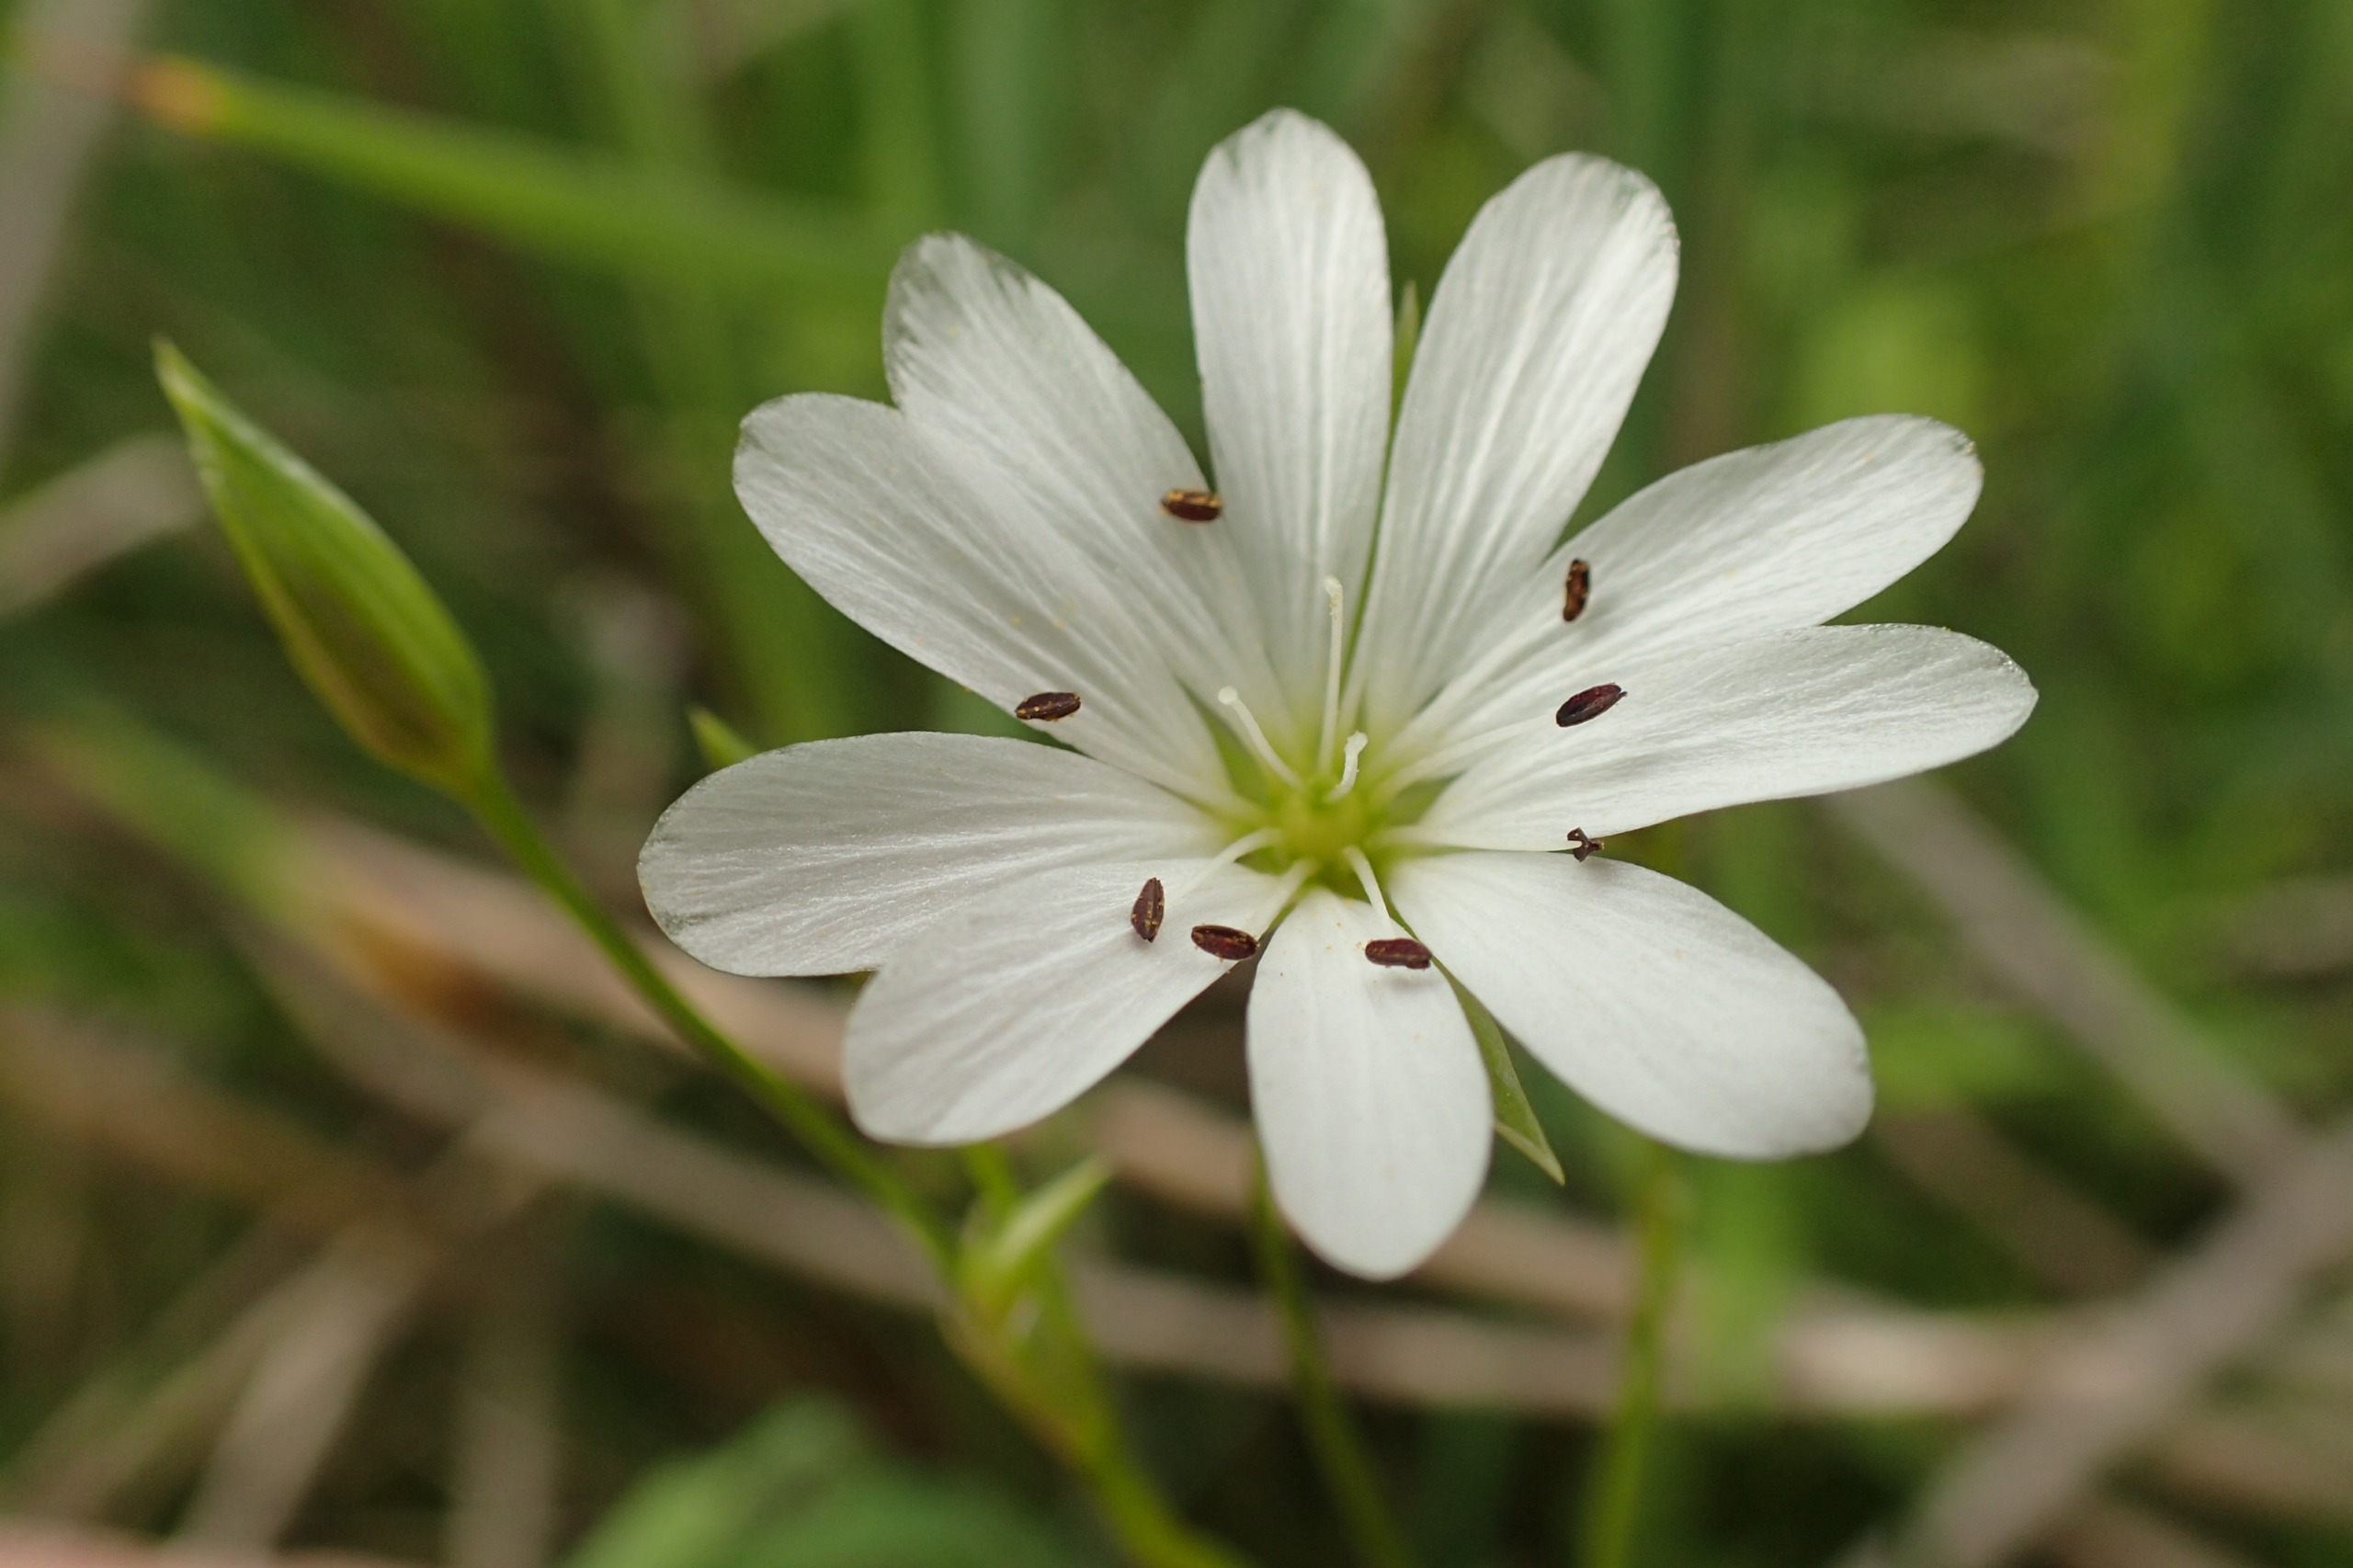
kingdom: Plantae
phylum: Tracheophyta
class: Magnoliopsida
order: Caryophyllales
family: Caryophyllaceae
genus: Stellaria
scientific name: Stellaria palustris
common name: Kær-fladstjerne
